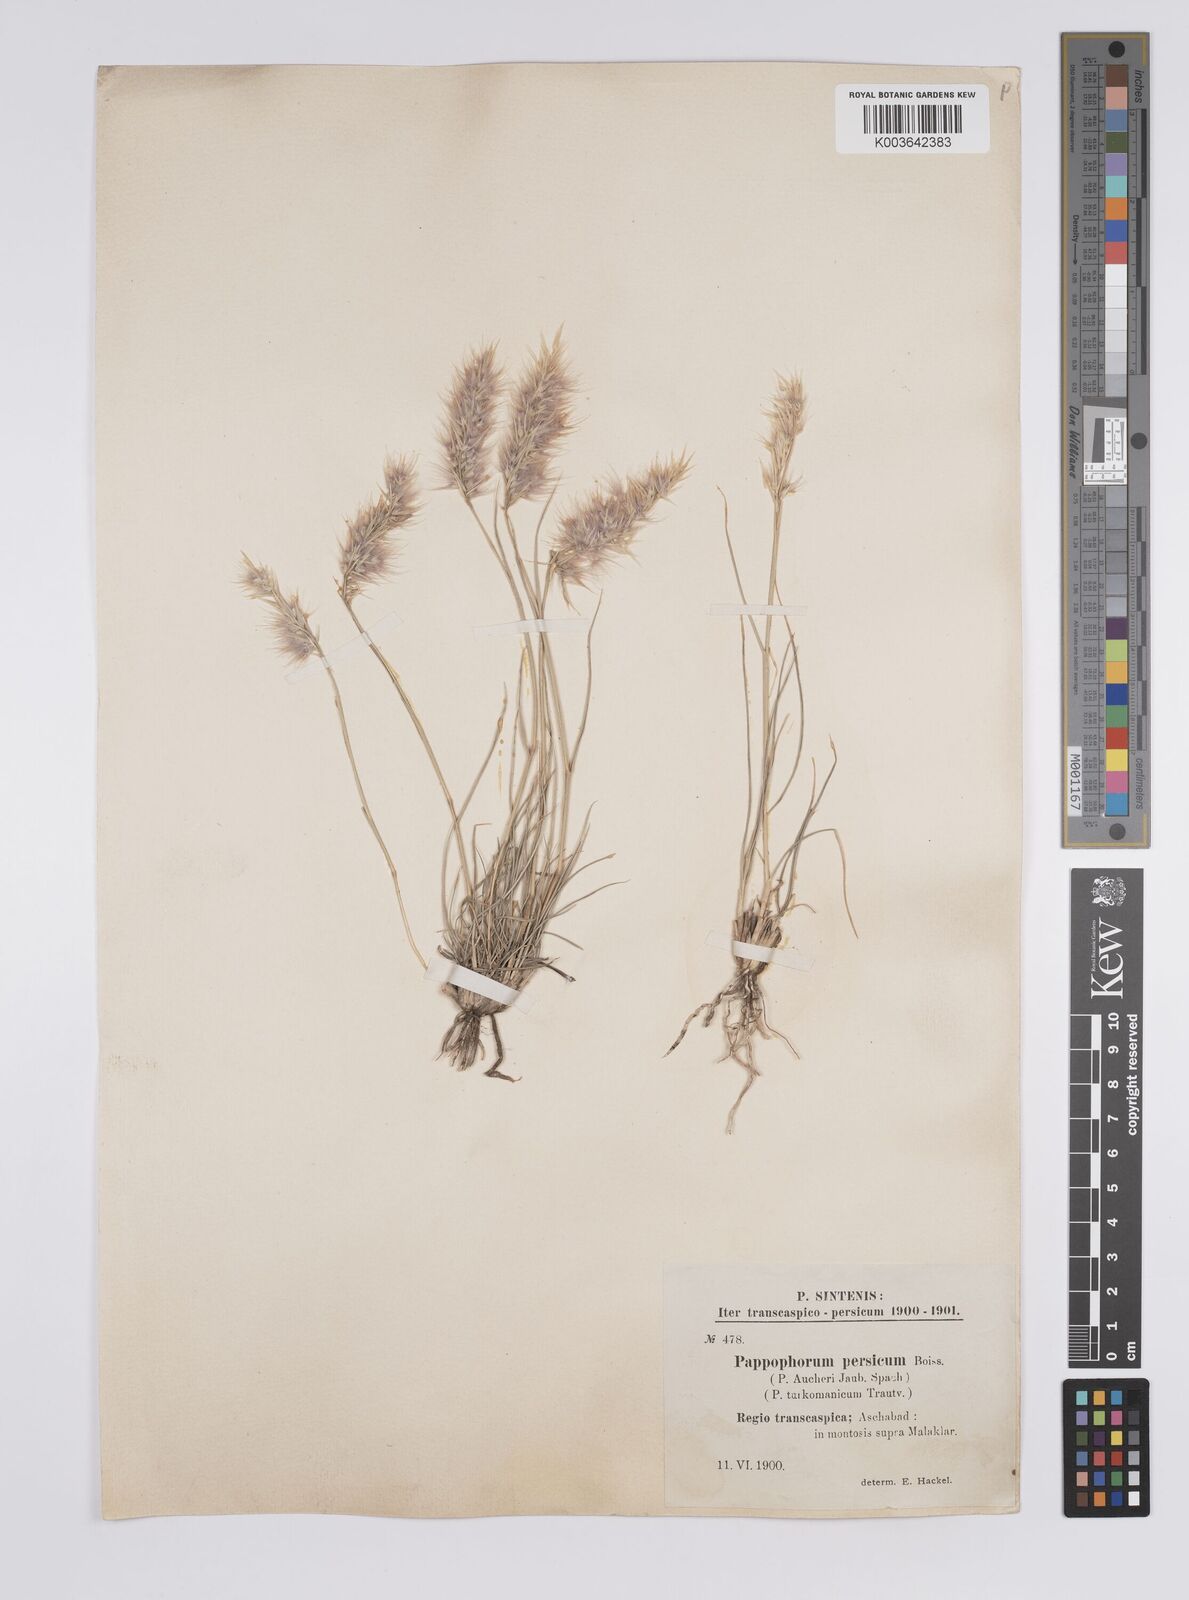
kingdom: Plantae
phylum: Tracheophyta
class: Liliopsida
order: Poales
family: Poaceae
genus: Enneapogon
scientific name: Enneapogon persicus
